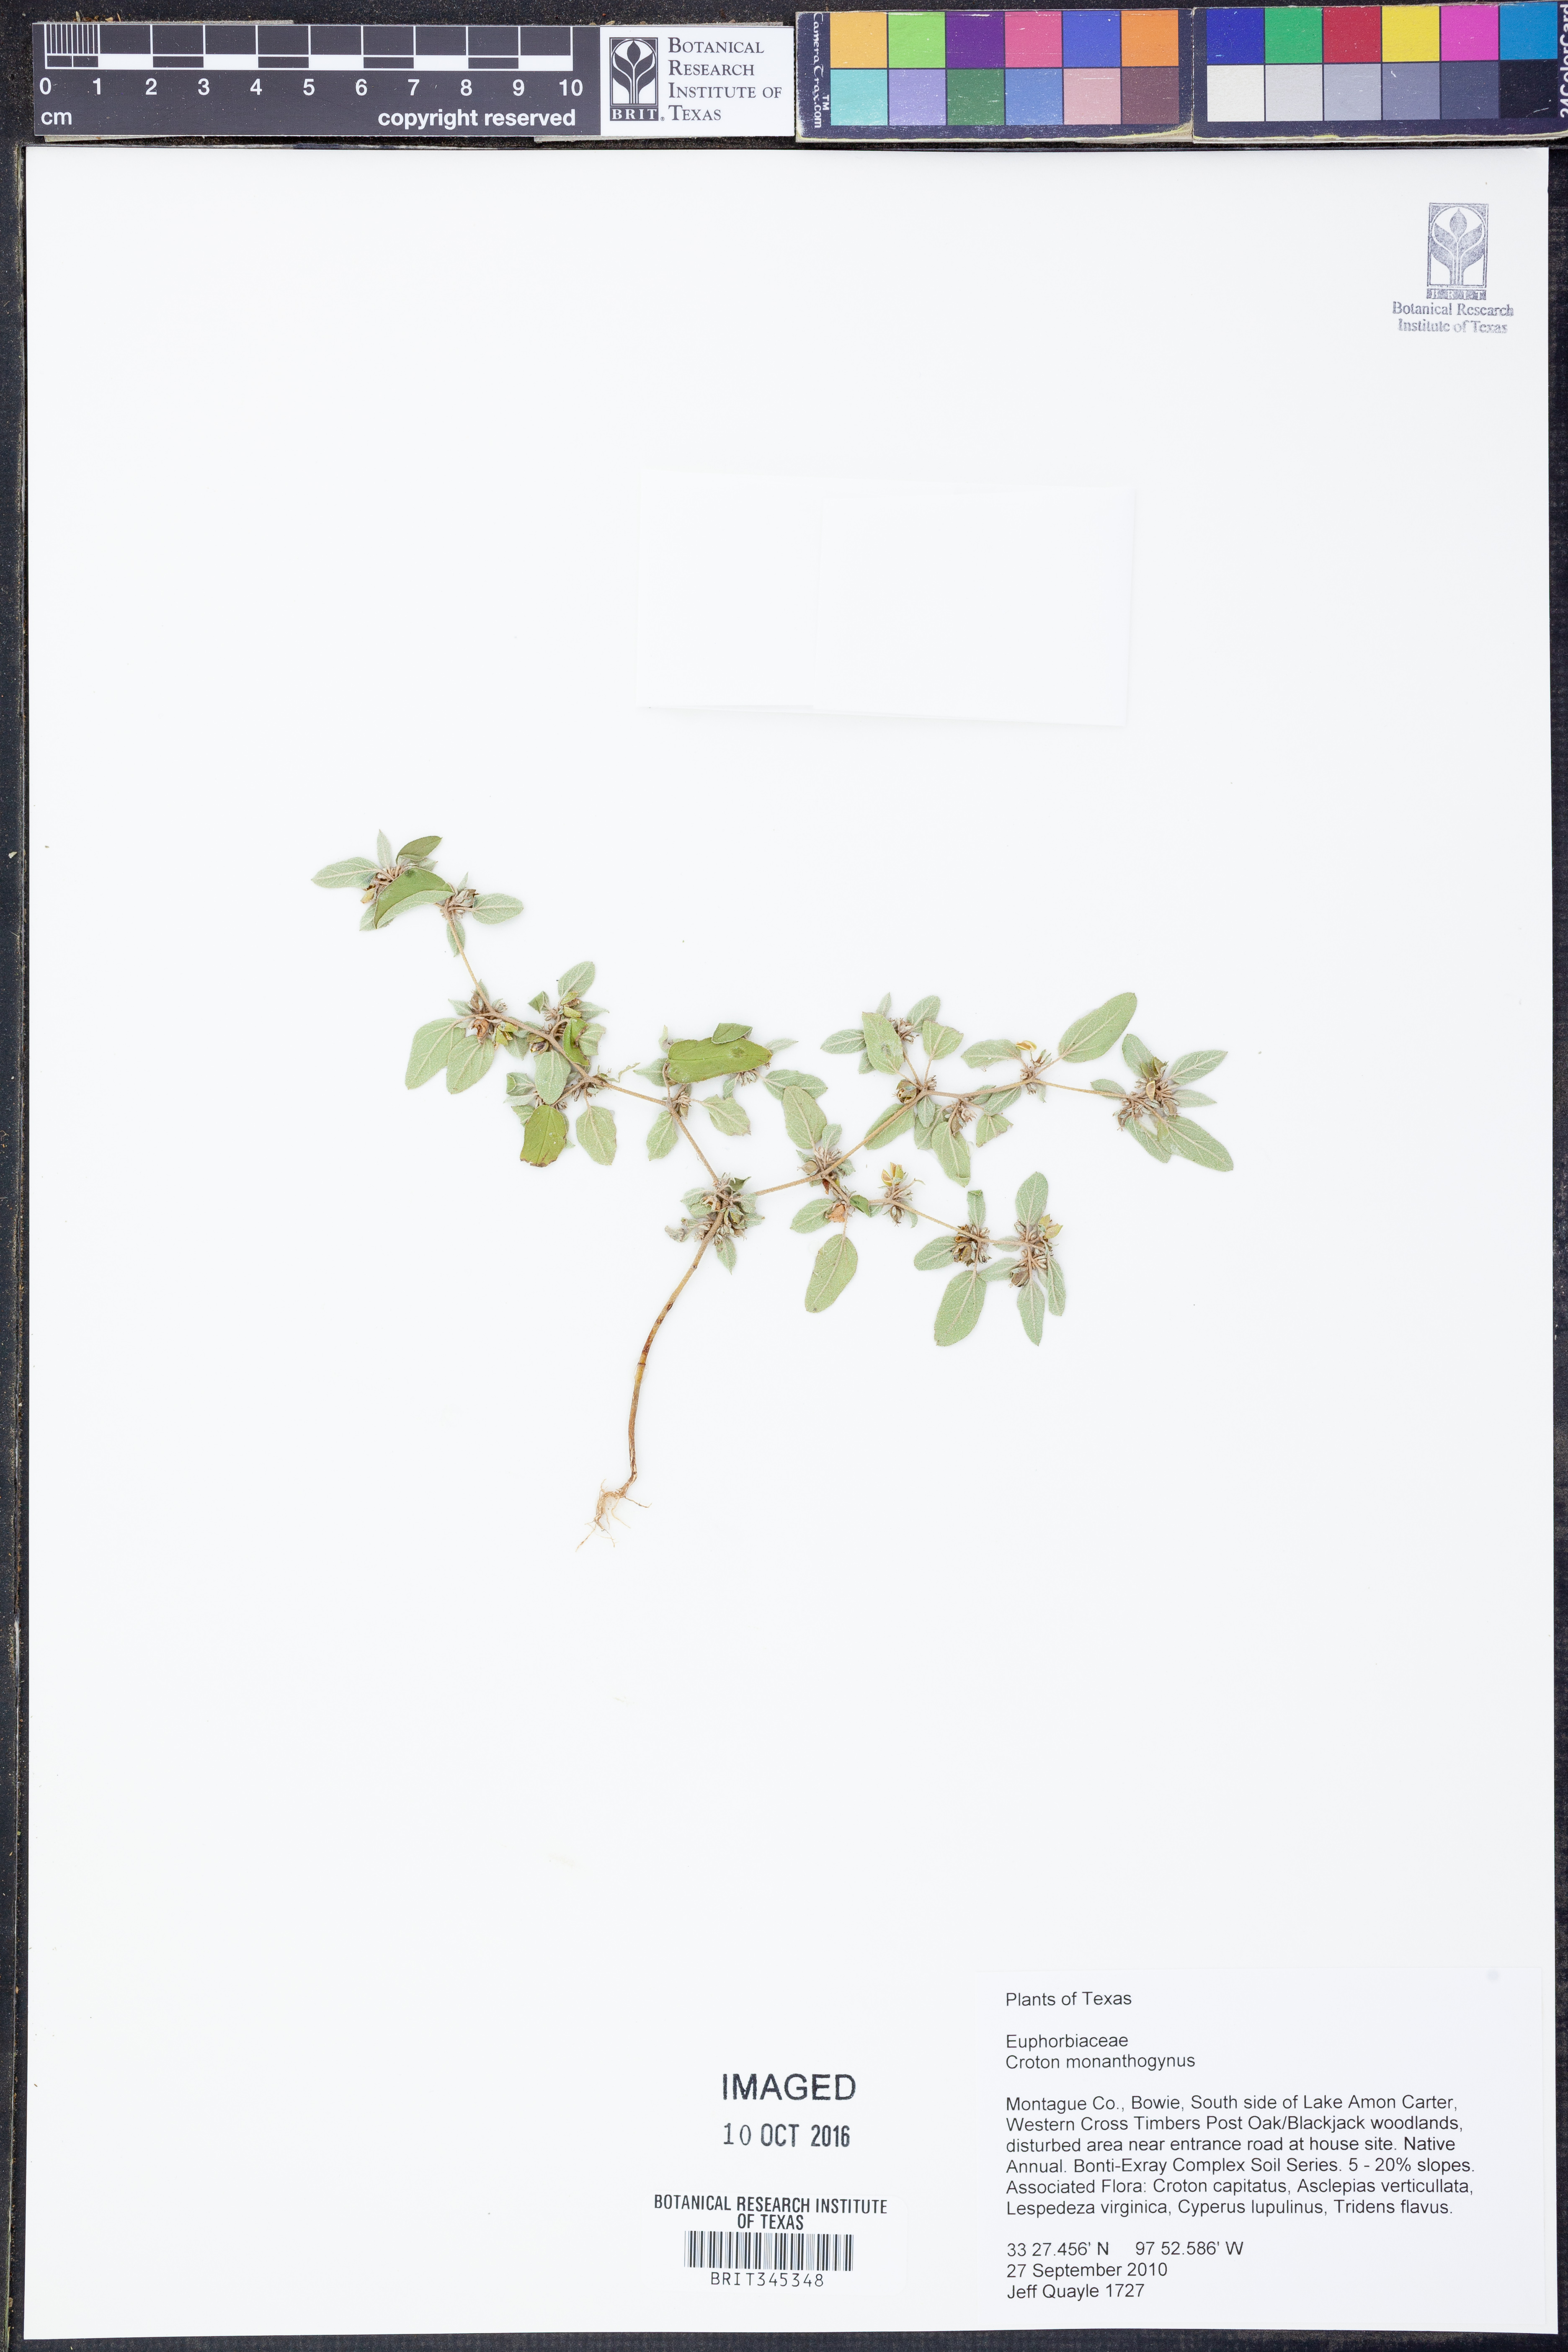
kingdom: Plantae
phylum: Tracheophyta
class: Magnoliopsida
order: Malpighiales
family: Euphorbiaceae
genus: Croton
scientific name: Croton monanthogynus
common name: One-seed croton
